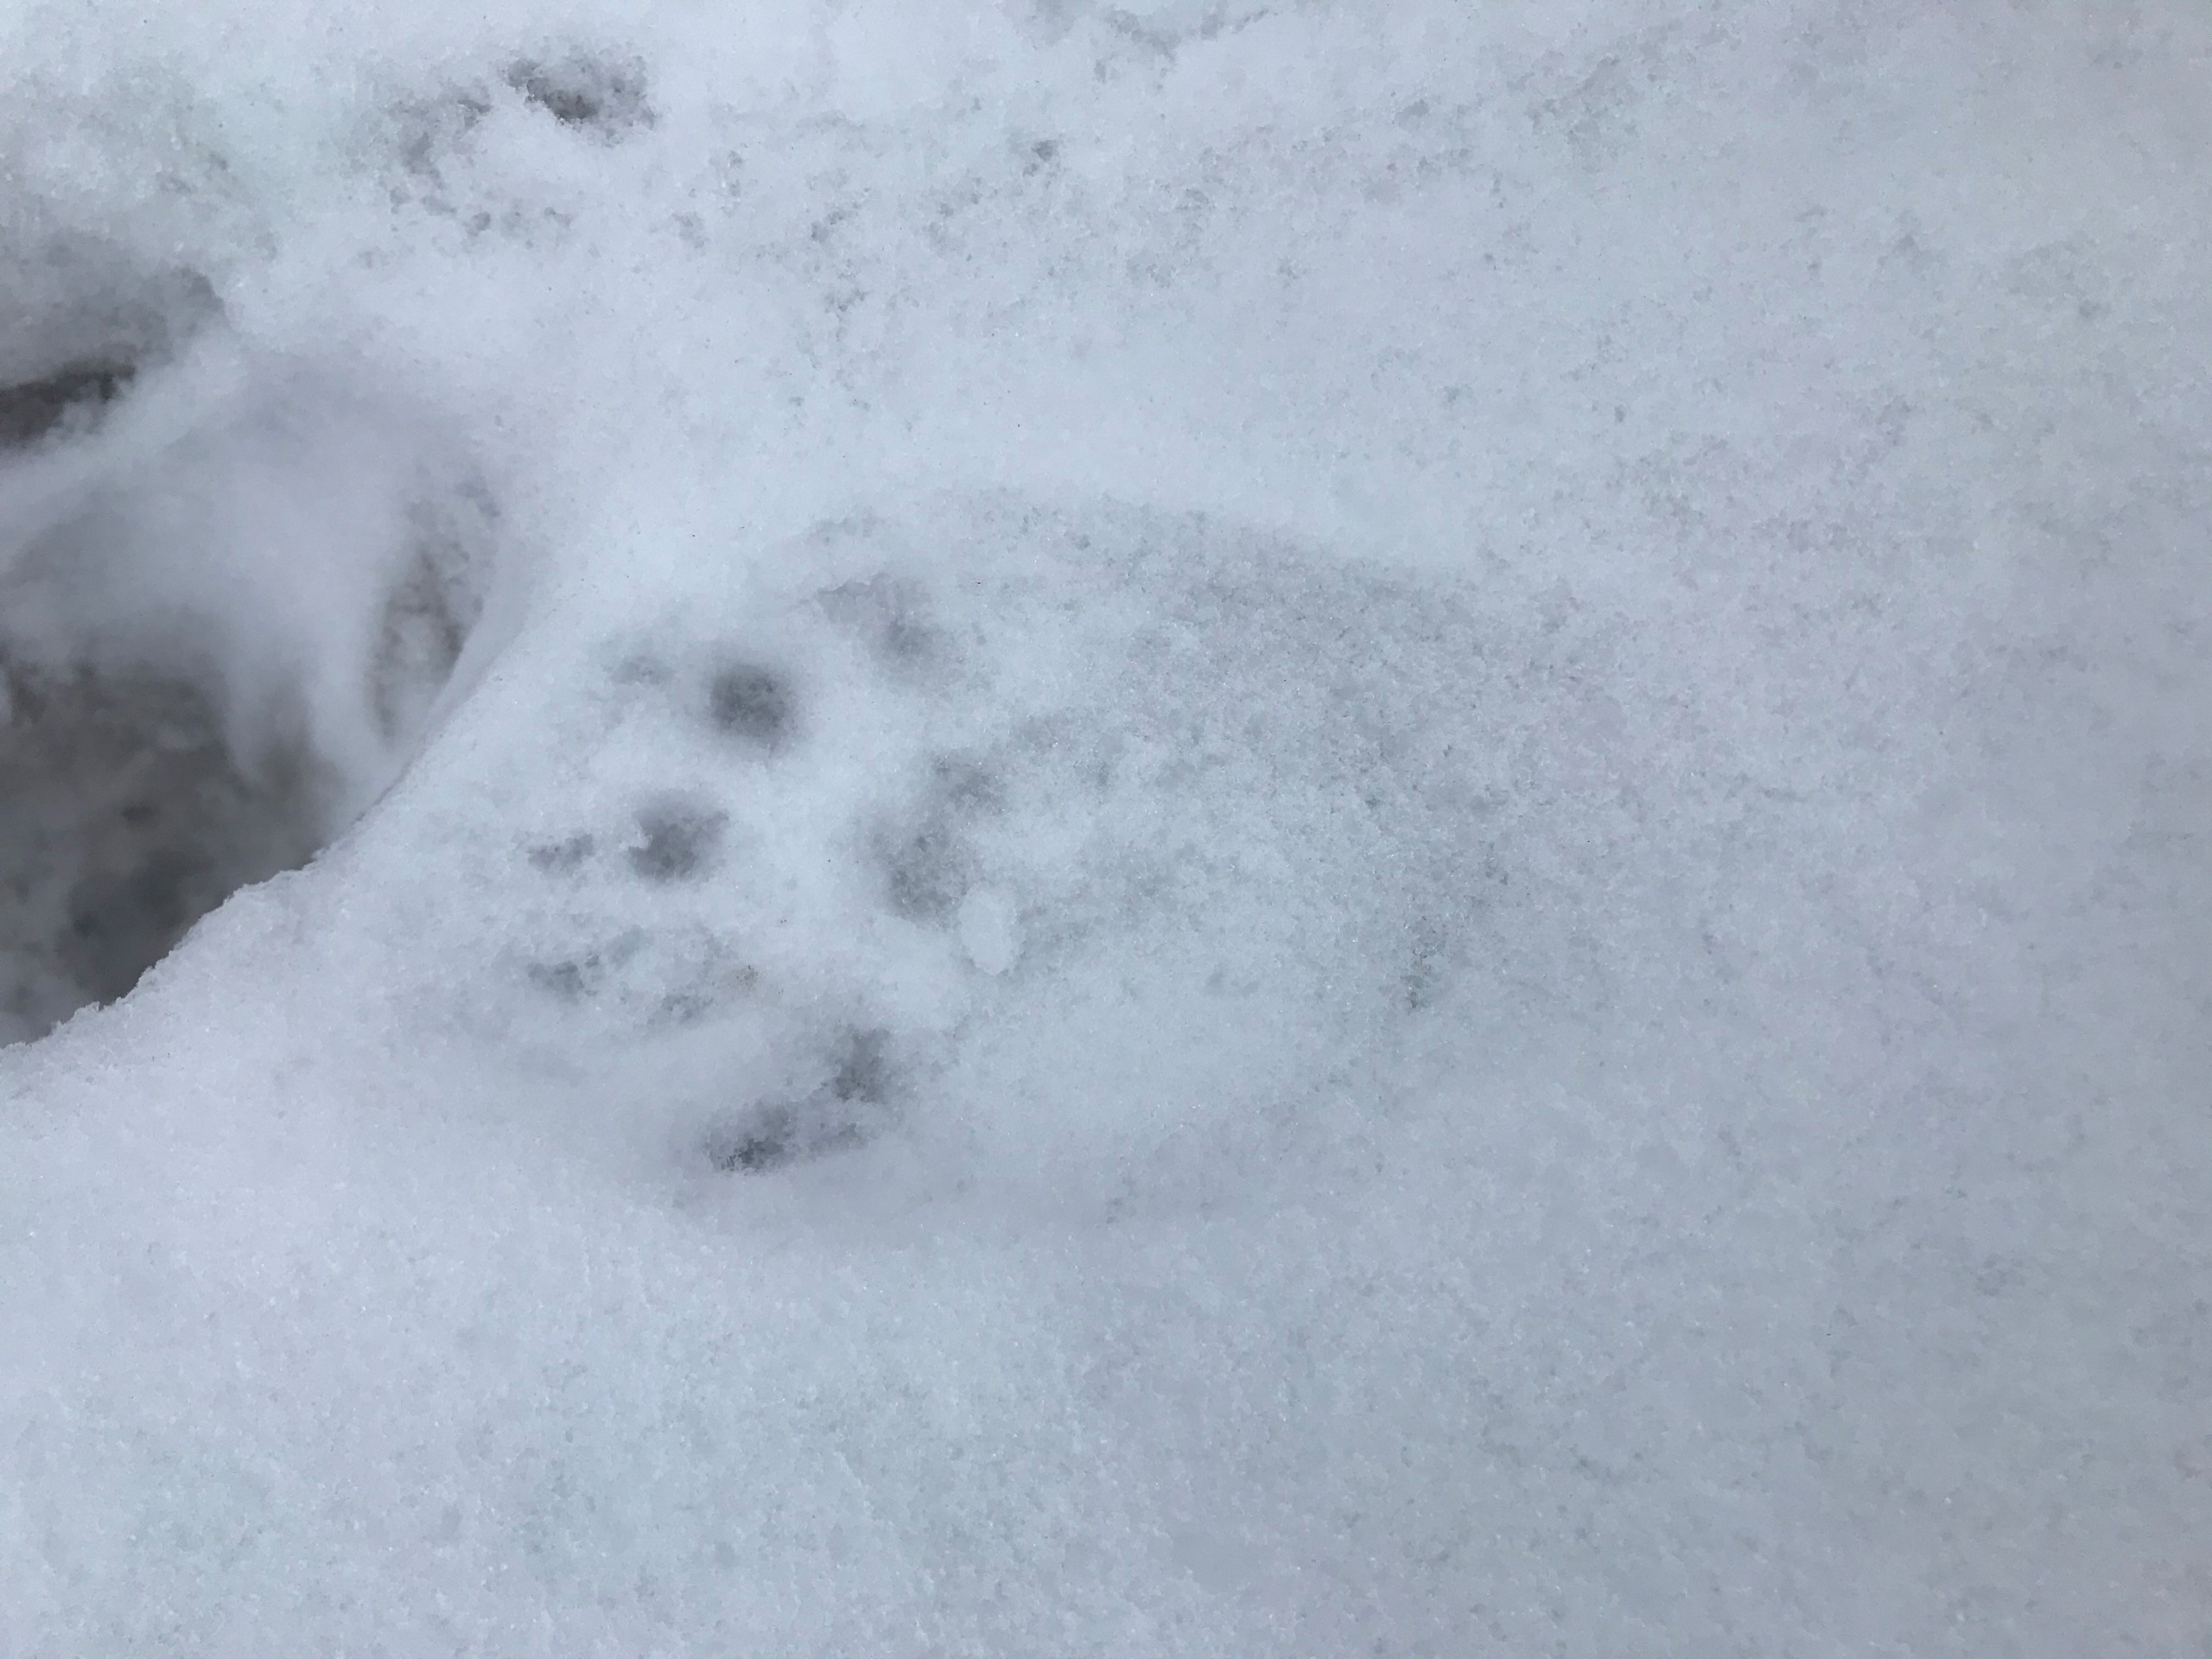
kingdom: Animalia
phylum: Chordata
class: Mammalia
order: Carnivora
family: Mustelidae
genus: Lutra
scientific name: Lutra lutra
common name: Odder
